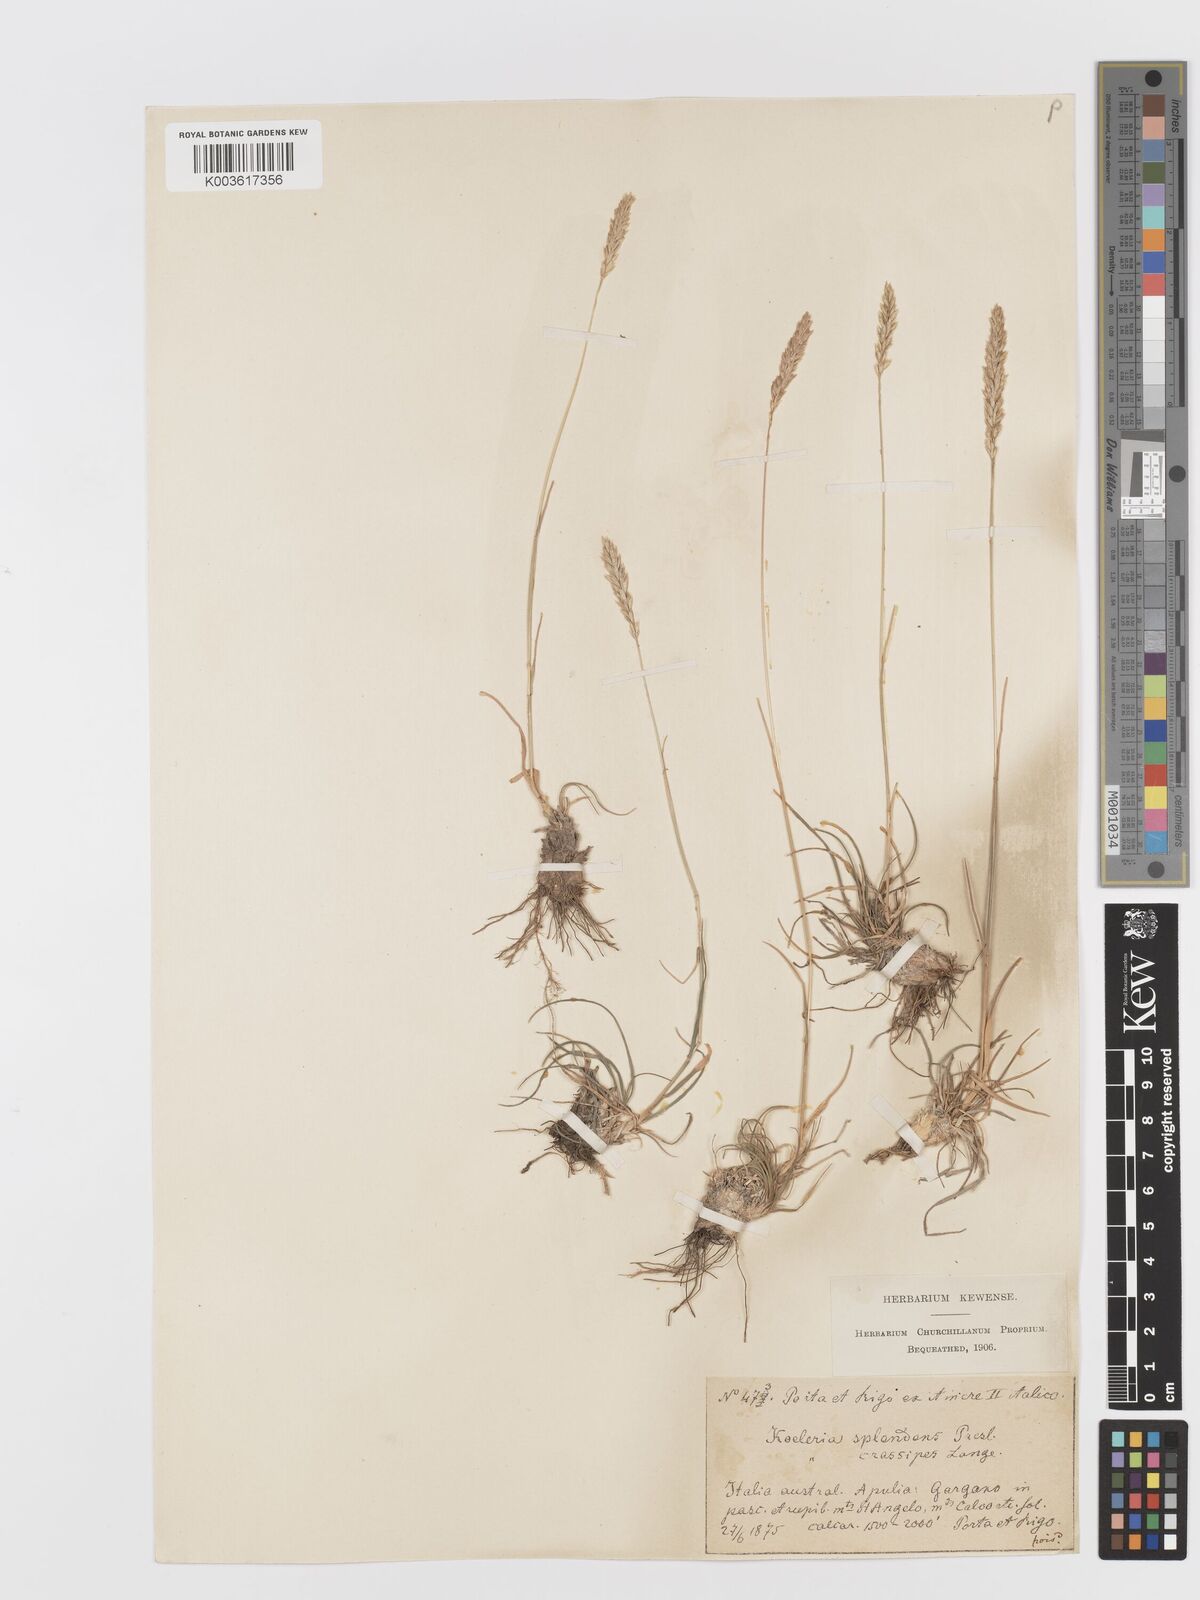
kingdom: Plantae
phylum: Tracheophyta
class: Liliopsida
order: Poales
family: Poaceae
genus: Koeleria
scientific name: Koeleria splendens
